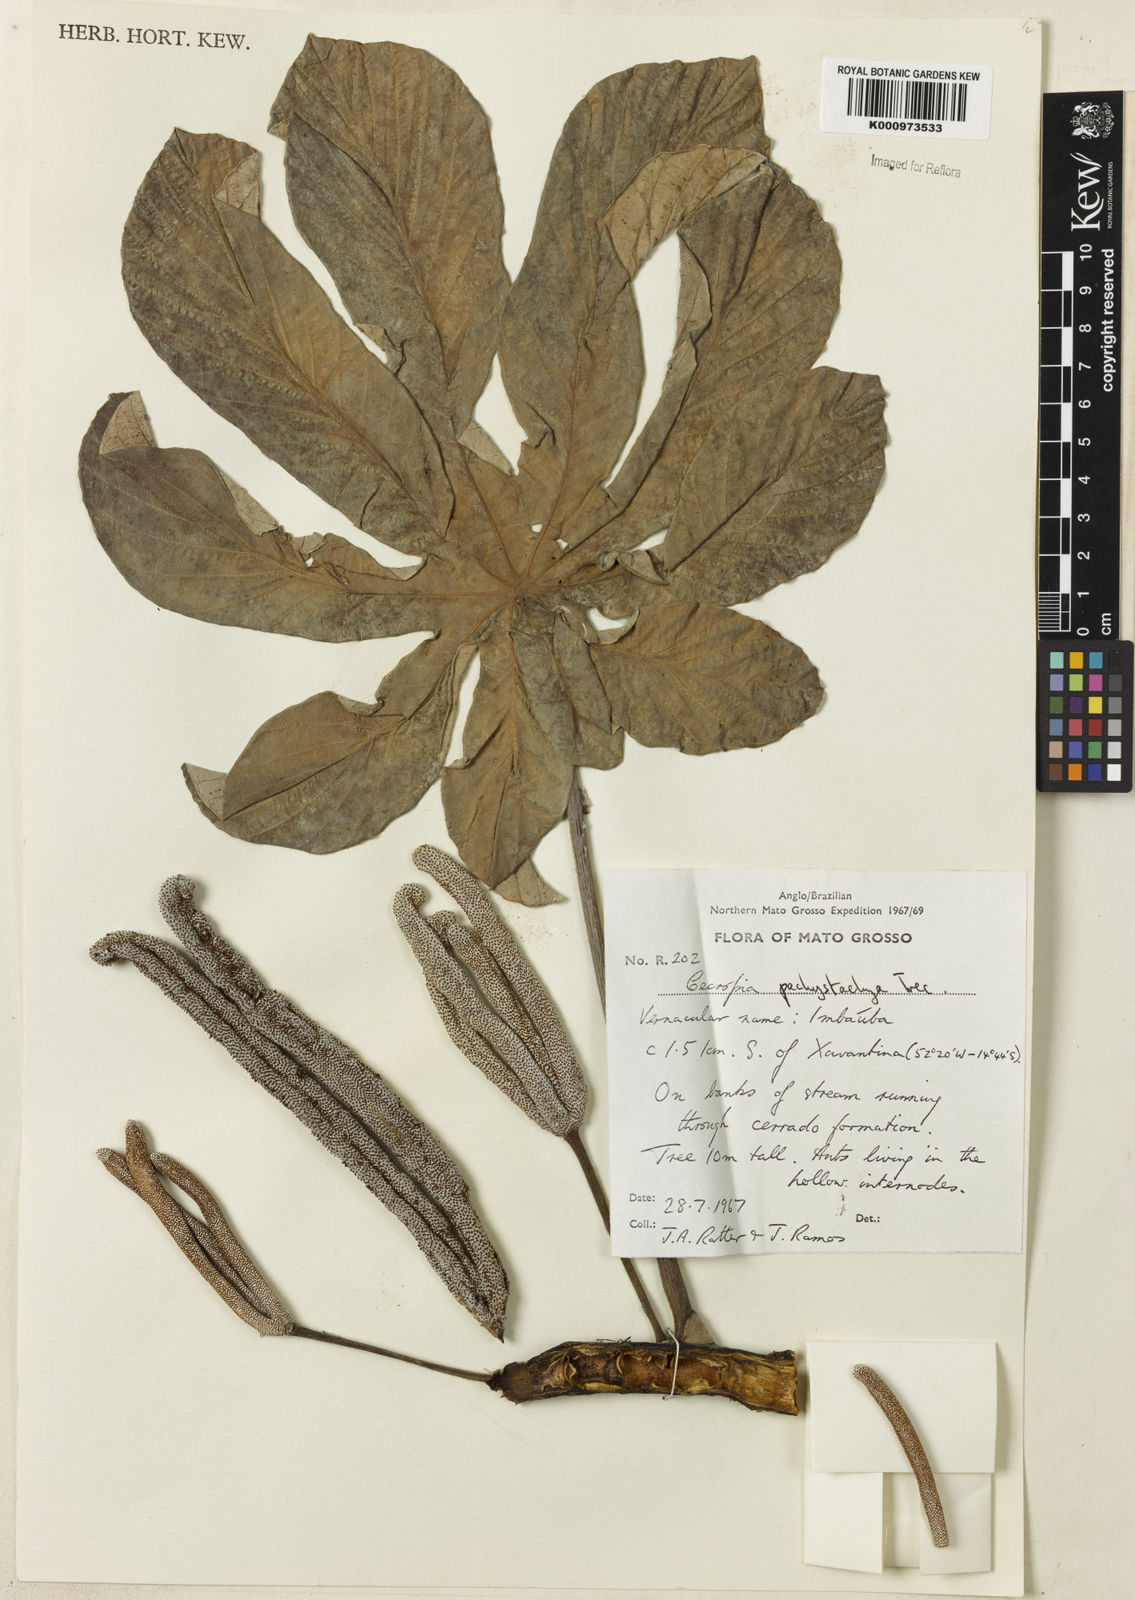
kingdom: Plantae
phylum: Tracheophyta
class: Magnoliopsida
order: Rosales
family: Urticaceae
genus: Cecropia
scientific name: Cecropia
